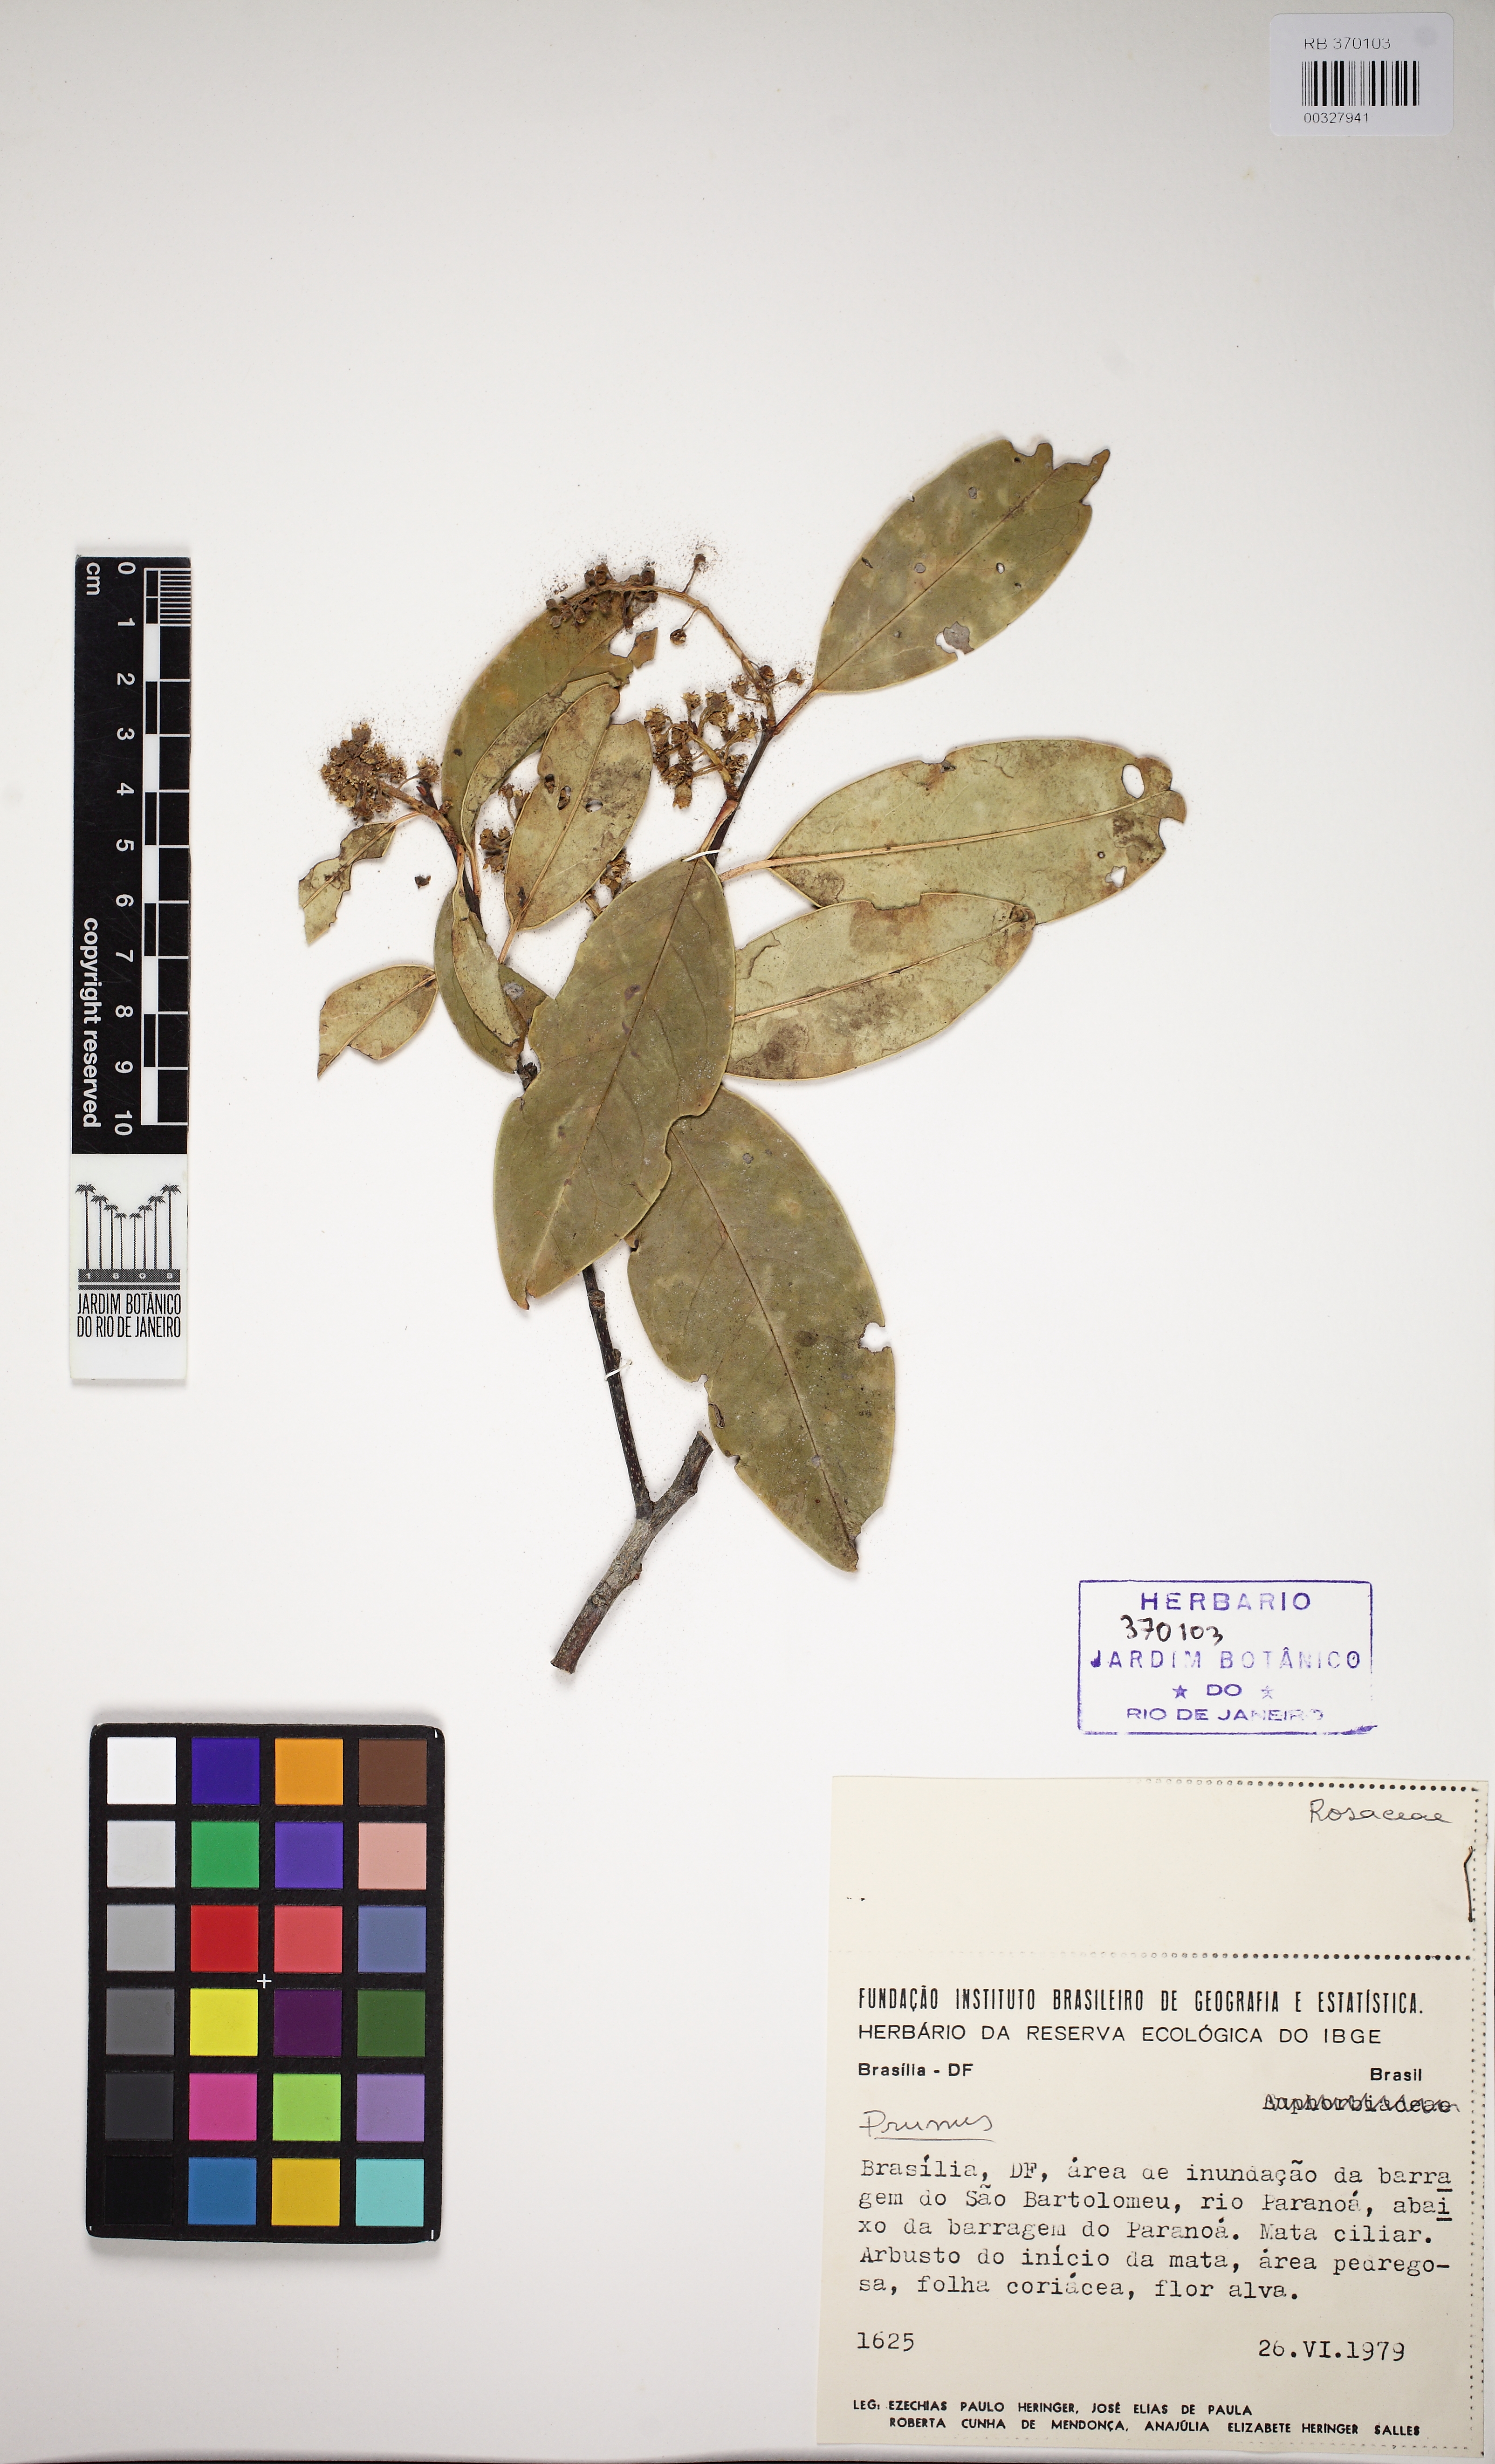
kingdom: Plantae
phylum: Tracheophyta
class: Magnoliopsida
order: Rosales
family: Rosaceae
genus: Prunus
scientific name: Prunus
